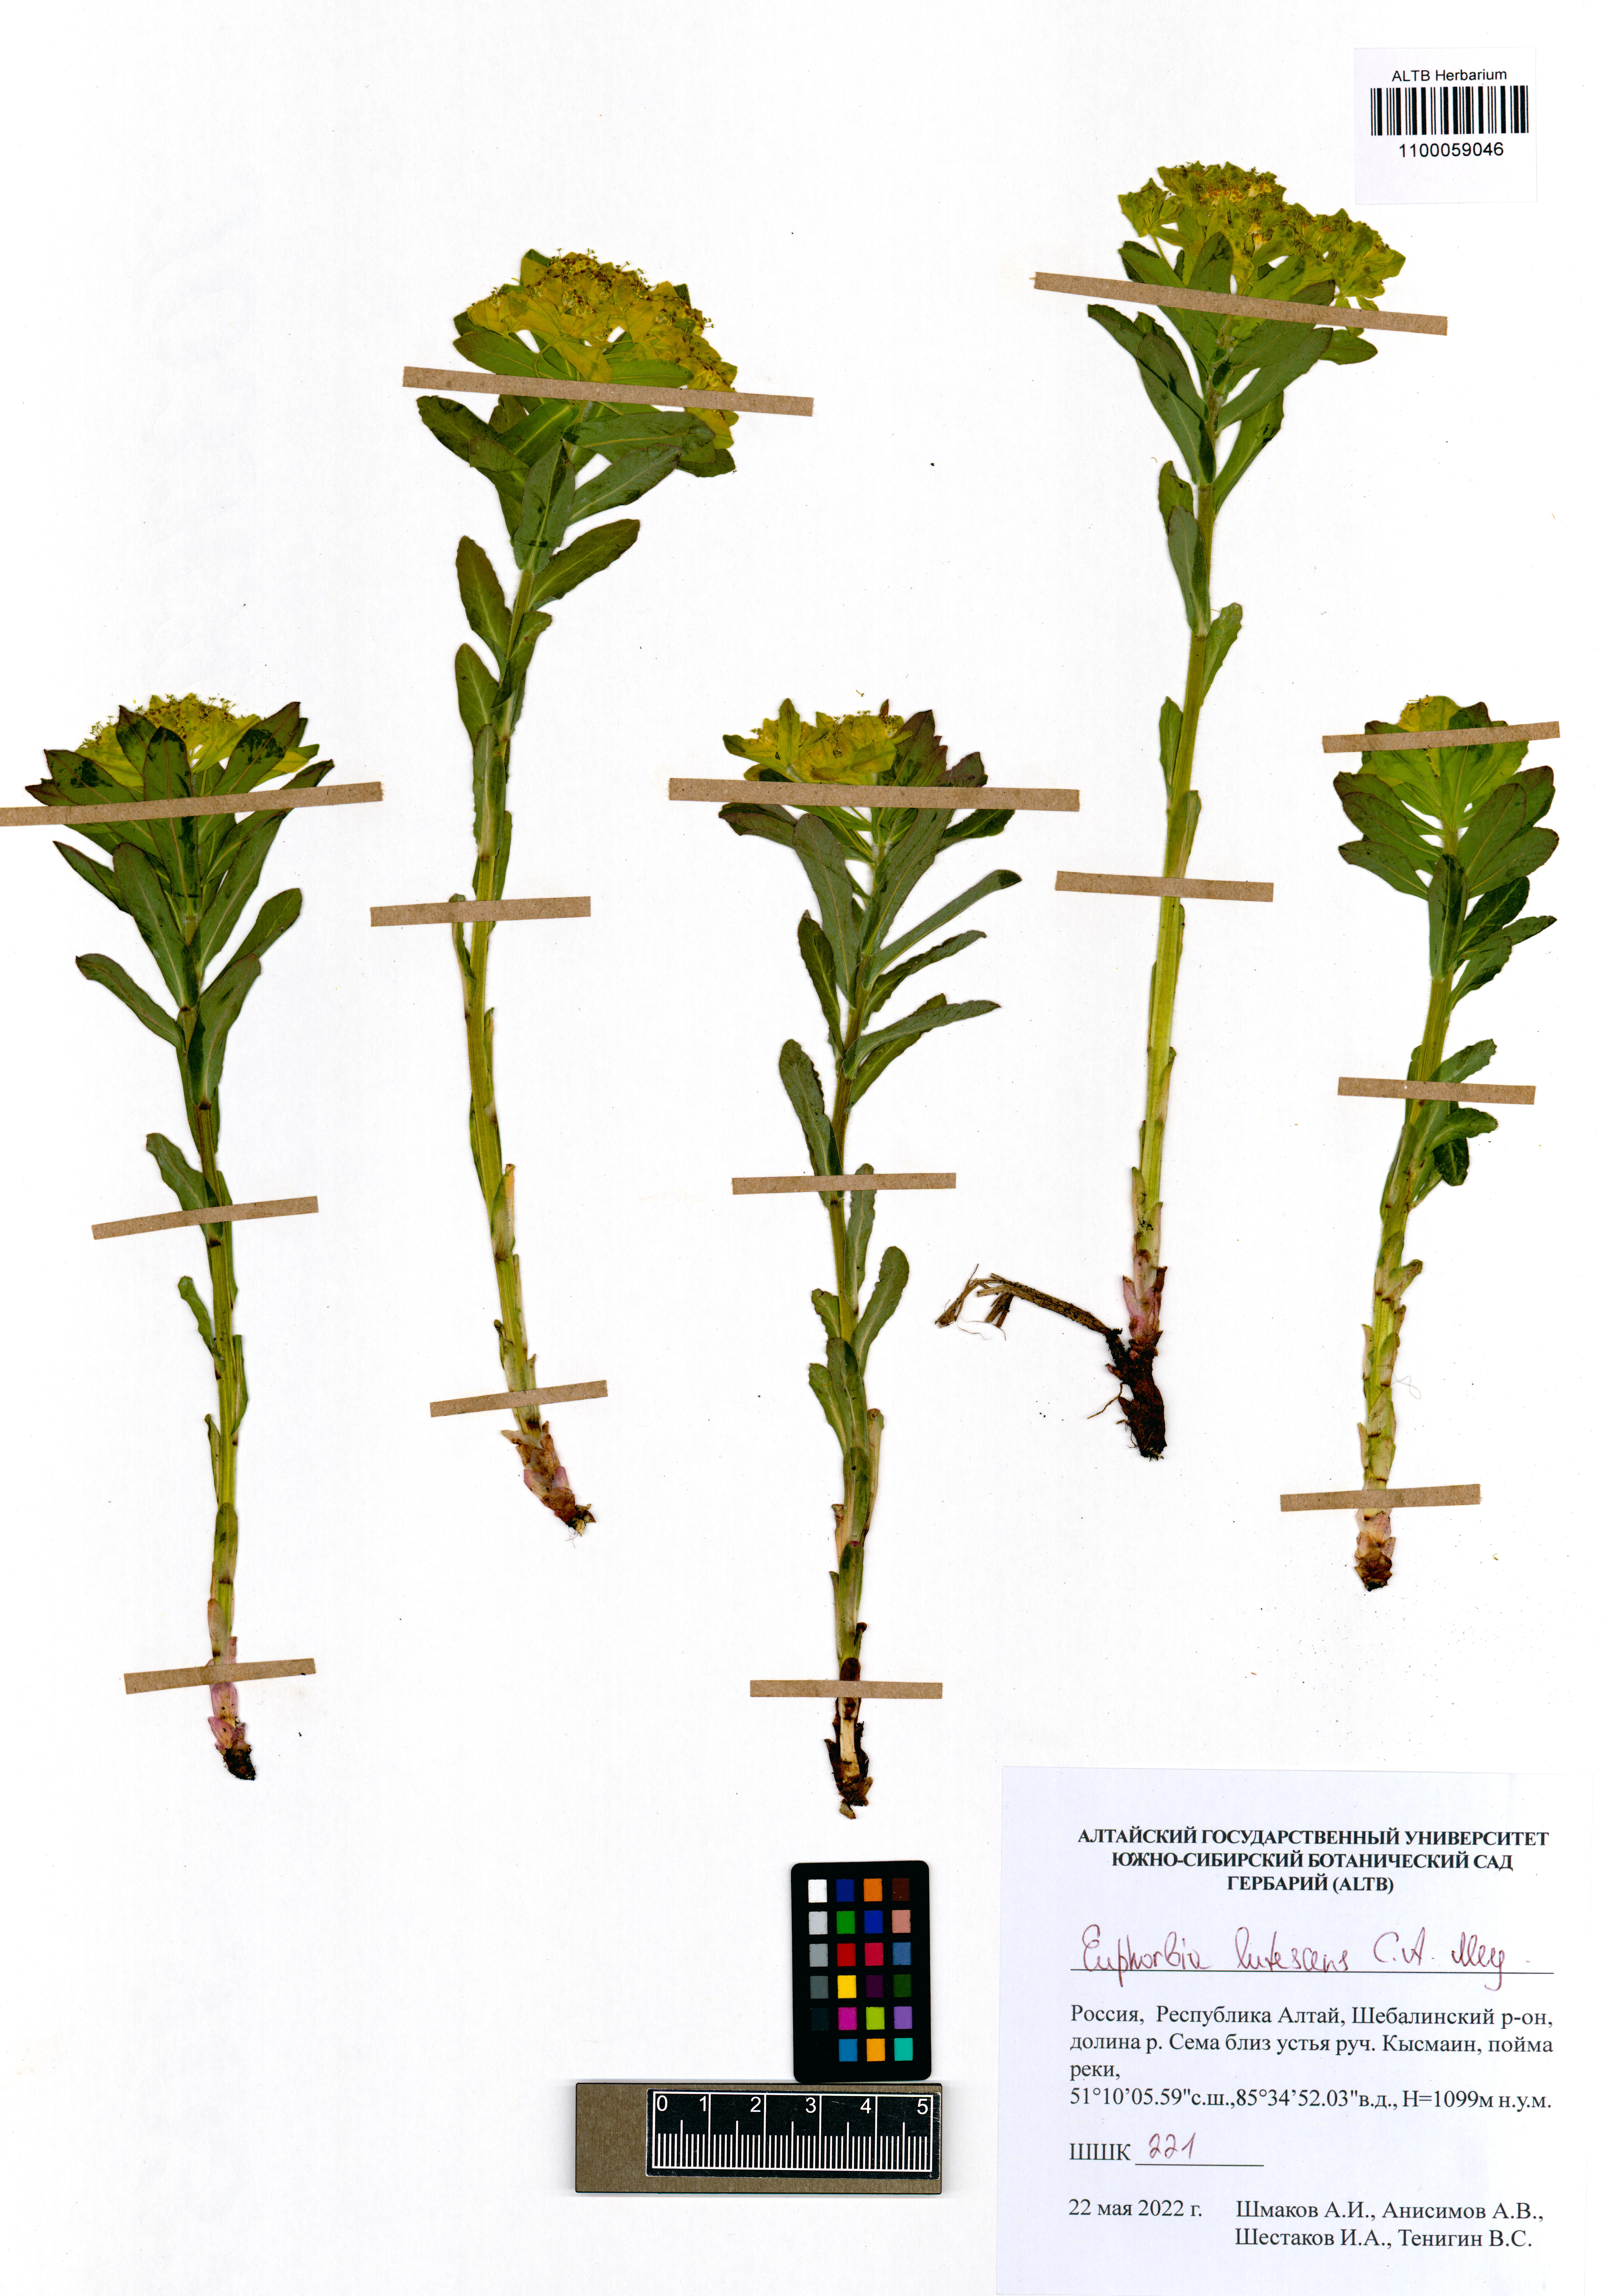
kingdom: Plantae
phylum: Tracheophyta
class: Magnoliopsida
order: Malpighiales
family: Euphorbiaceae
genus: Euphorbia
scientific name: Euphorbia pilosa
